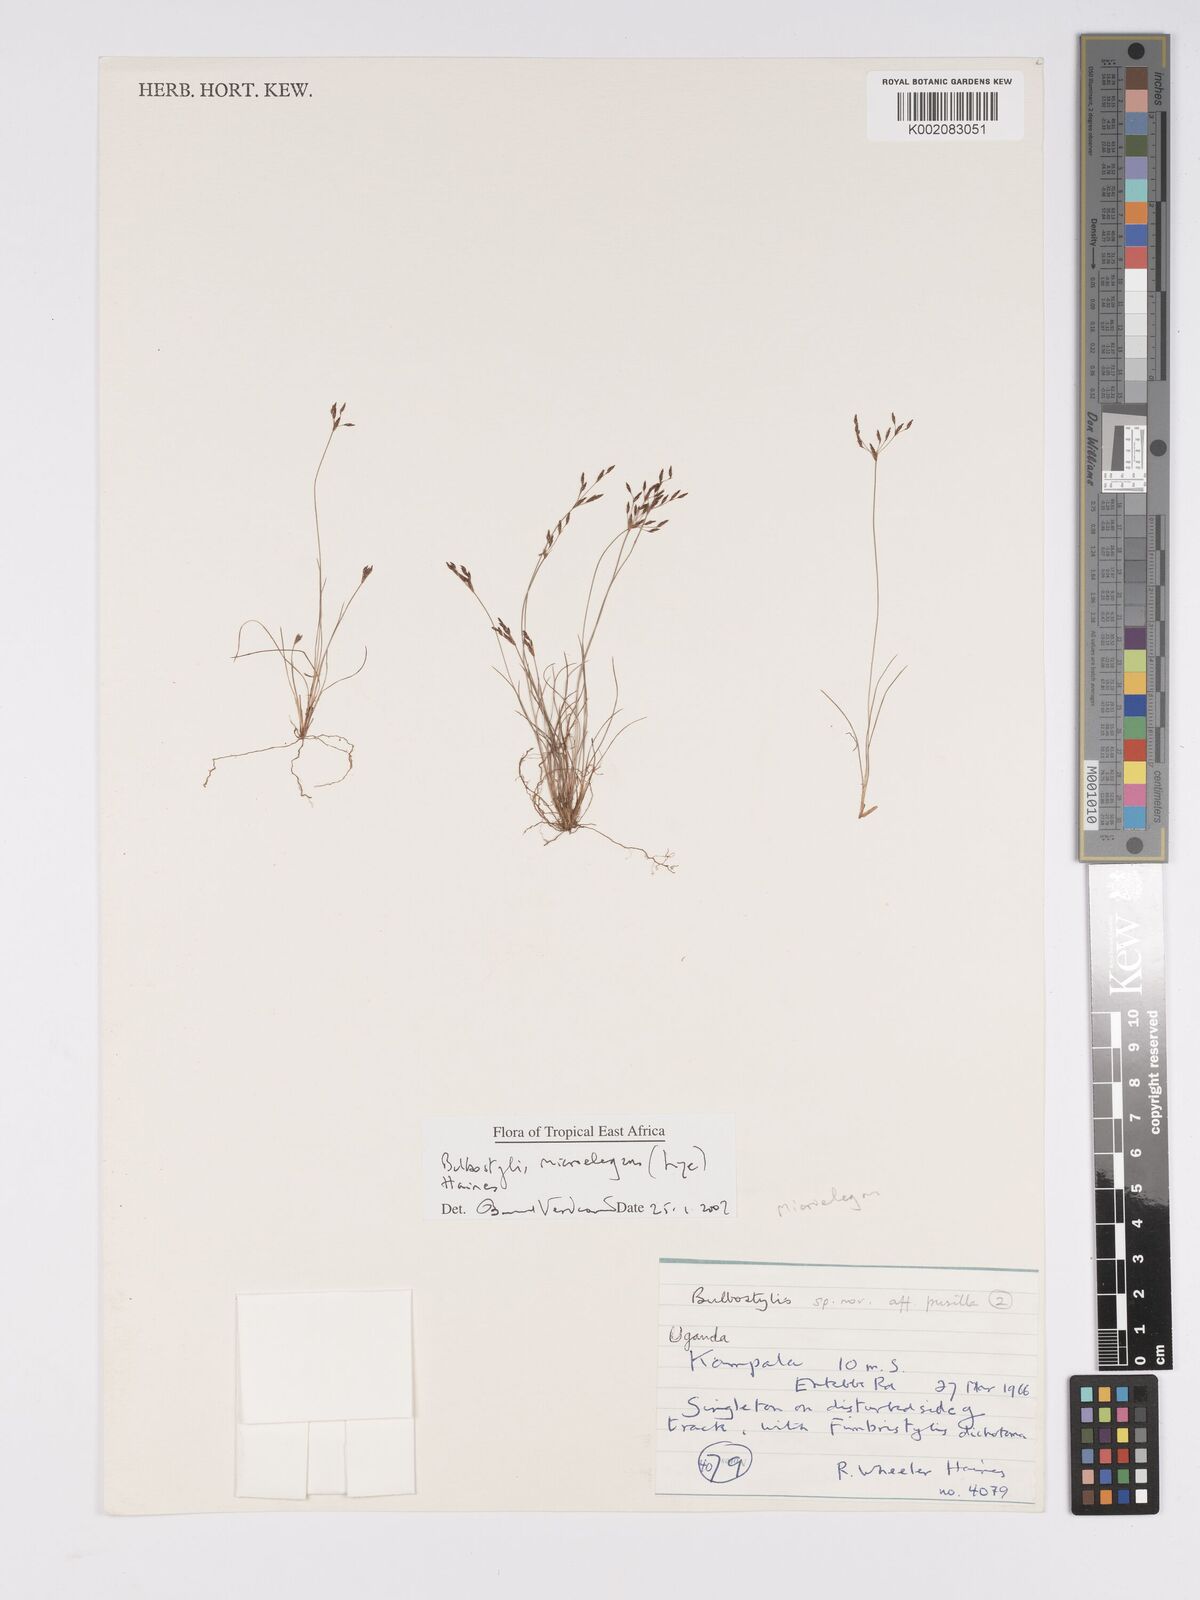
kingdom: Plantae
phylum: Tracheophyta
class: Liliopsida
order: Poales
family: Cyperaceae
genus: Bulbostylis
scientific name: Bulbostylis microelegans
